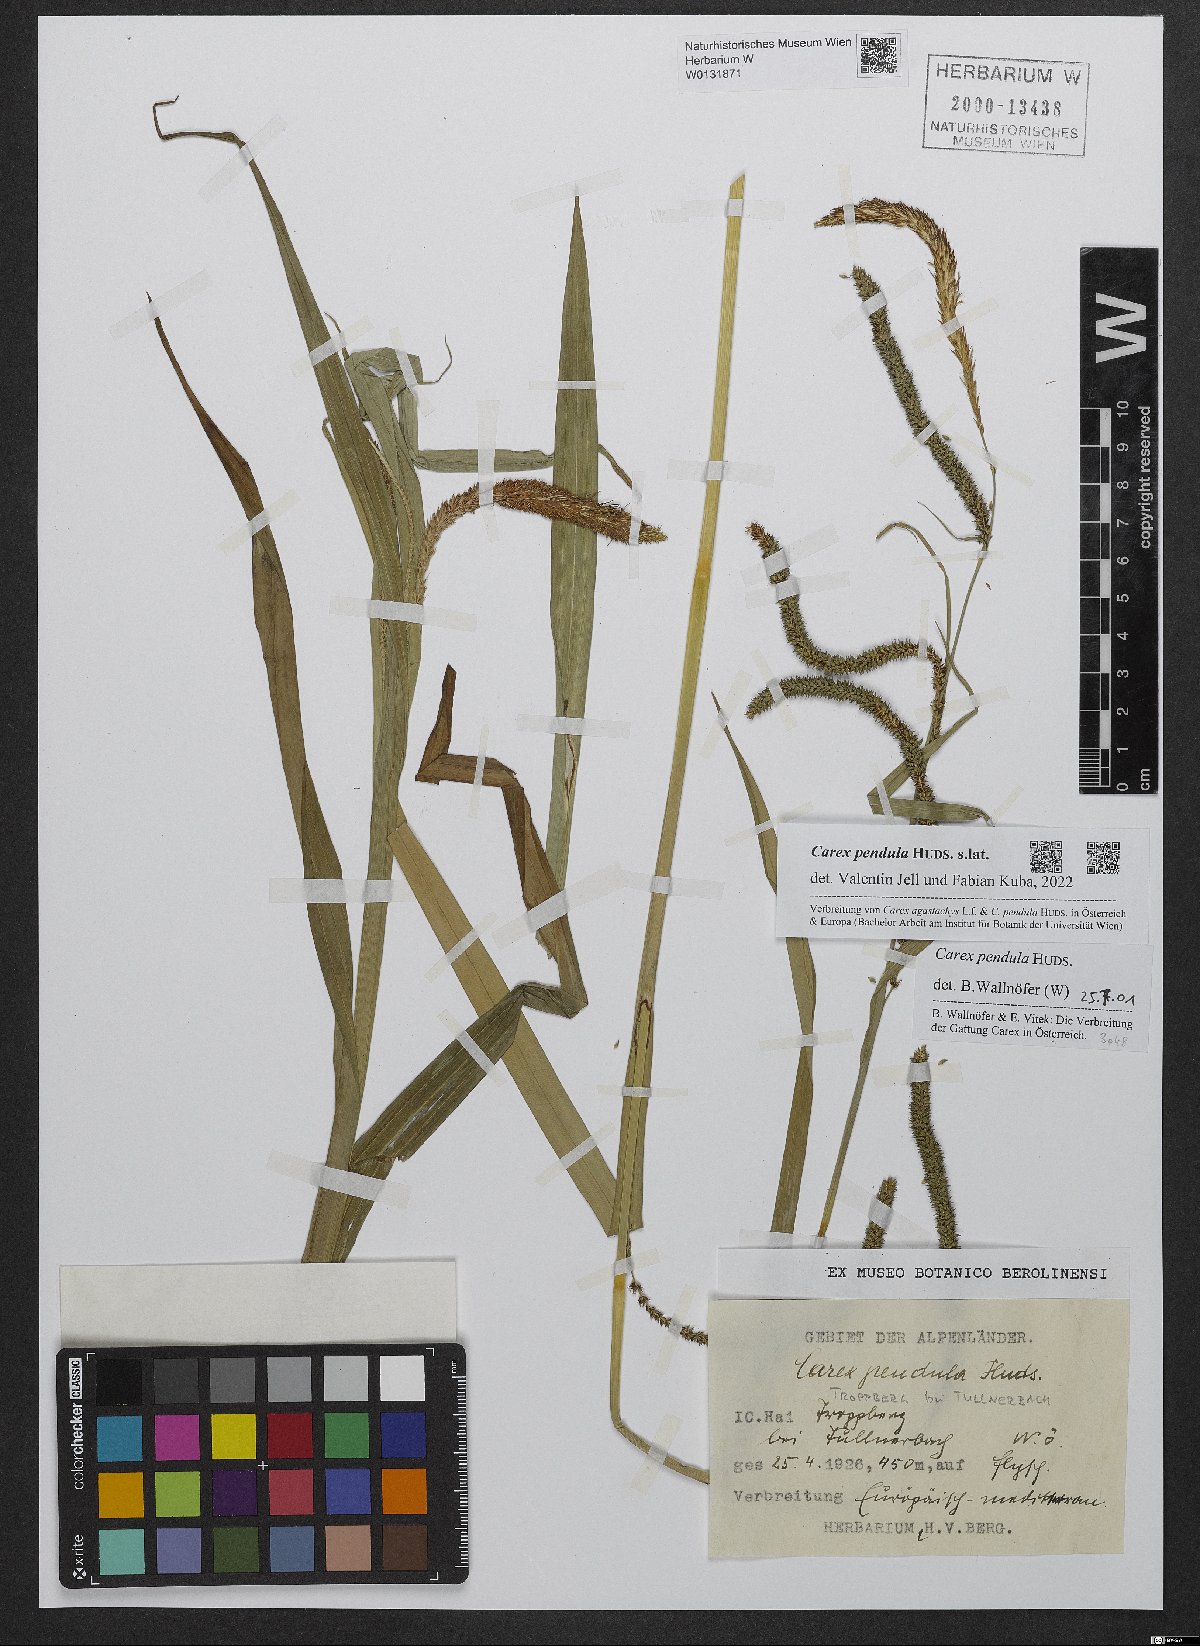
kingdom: Plantae
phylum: Tracheophyta
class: Liliopsida
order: Poales
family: Cyperaceae
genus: Carex
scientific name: Carex pendula
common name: Pendulous sedge
